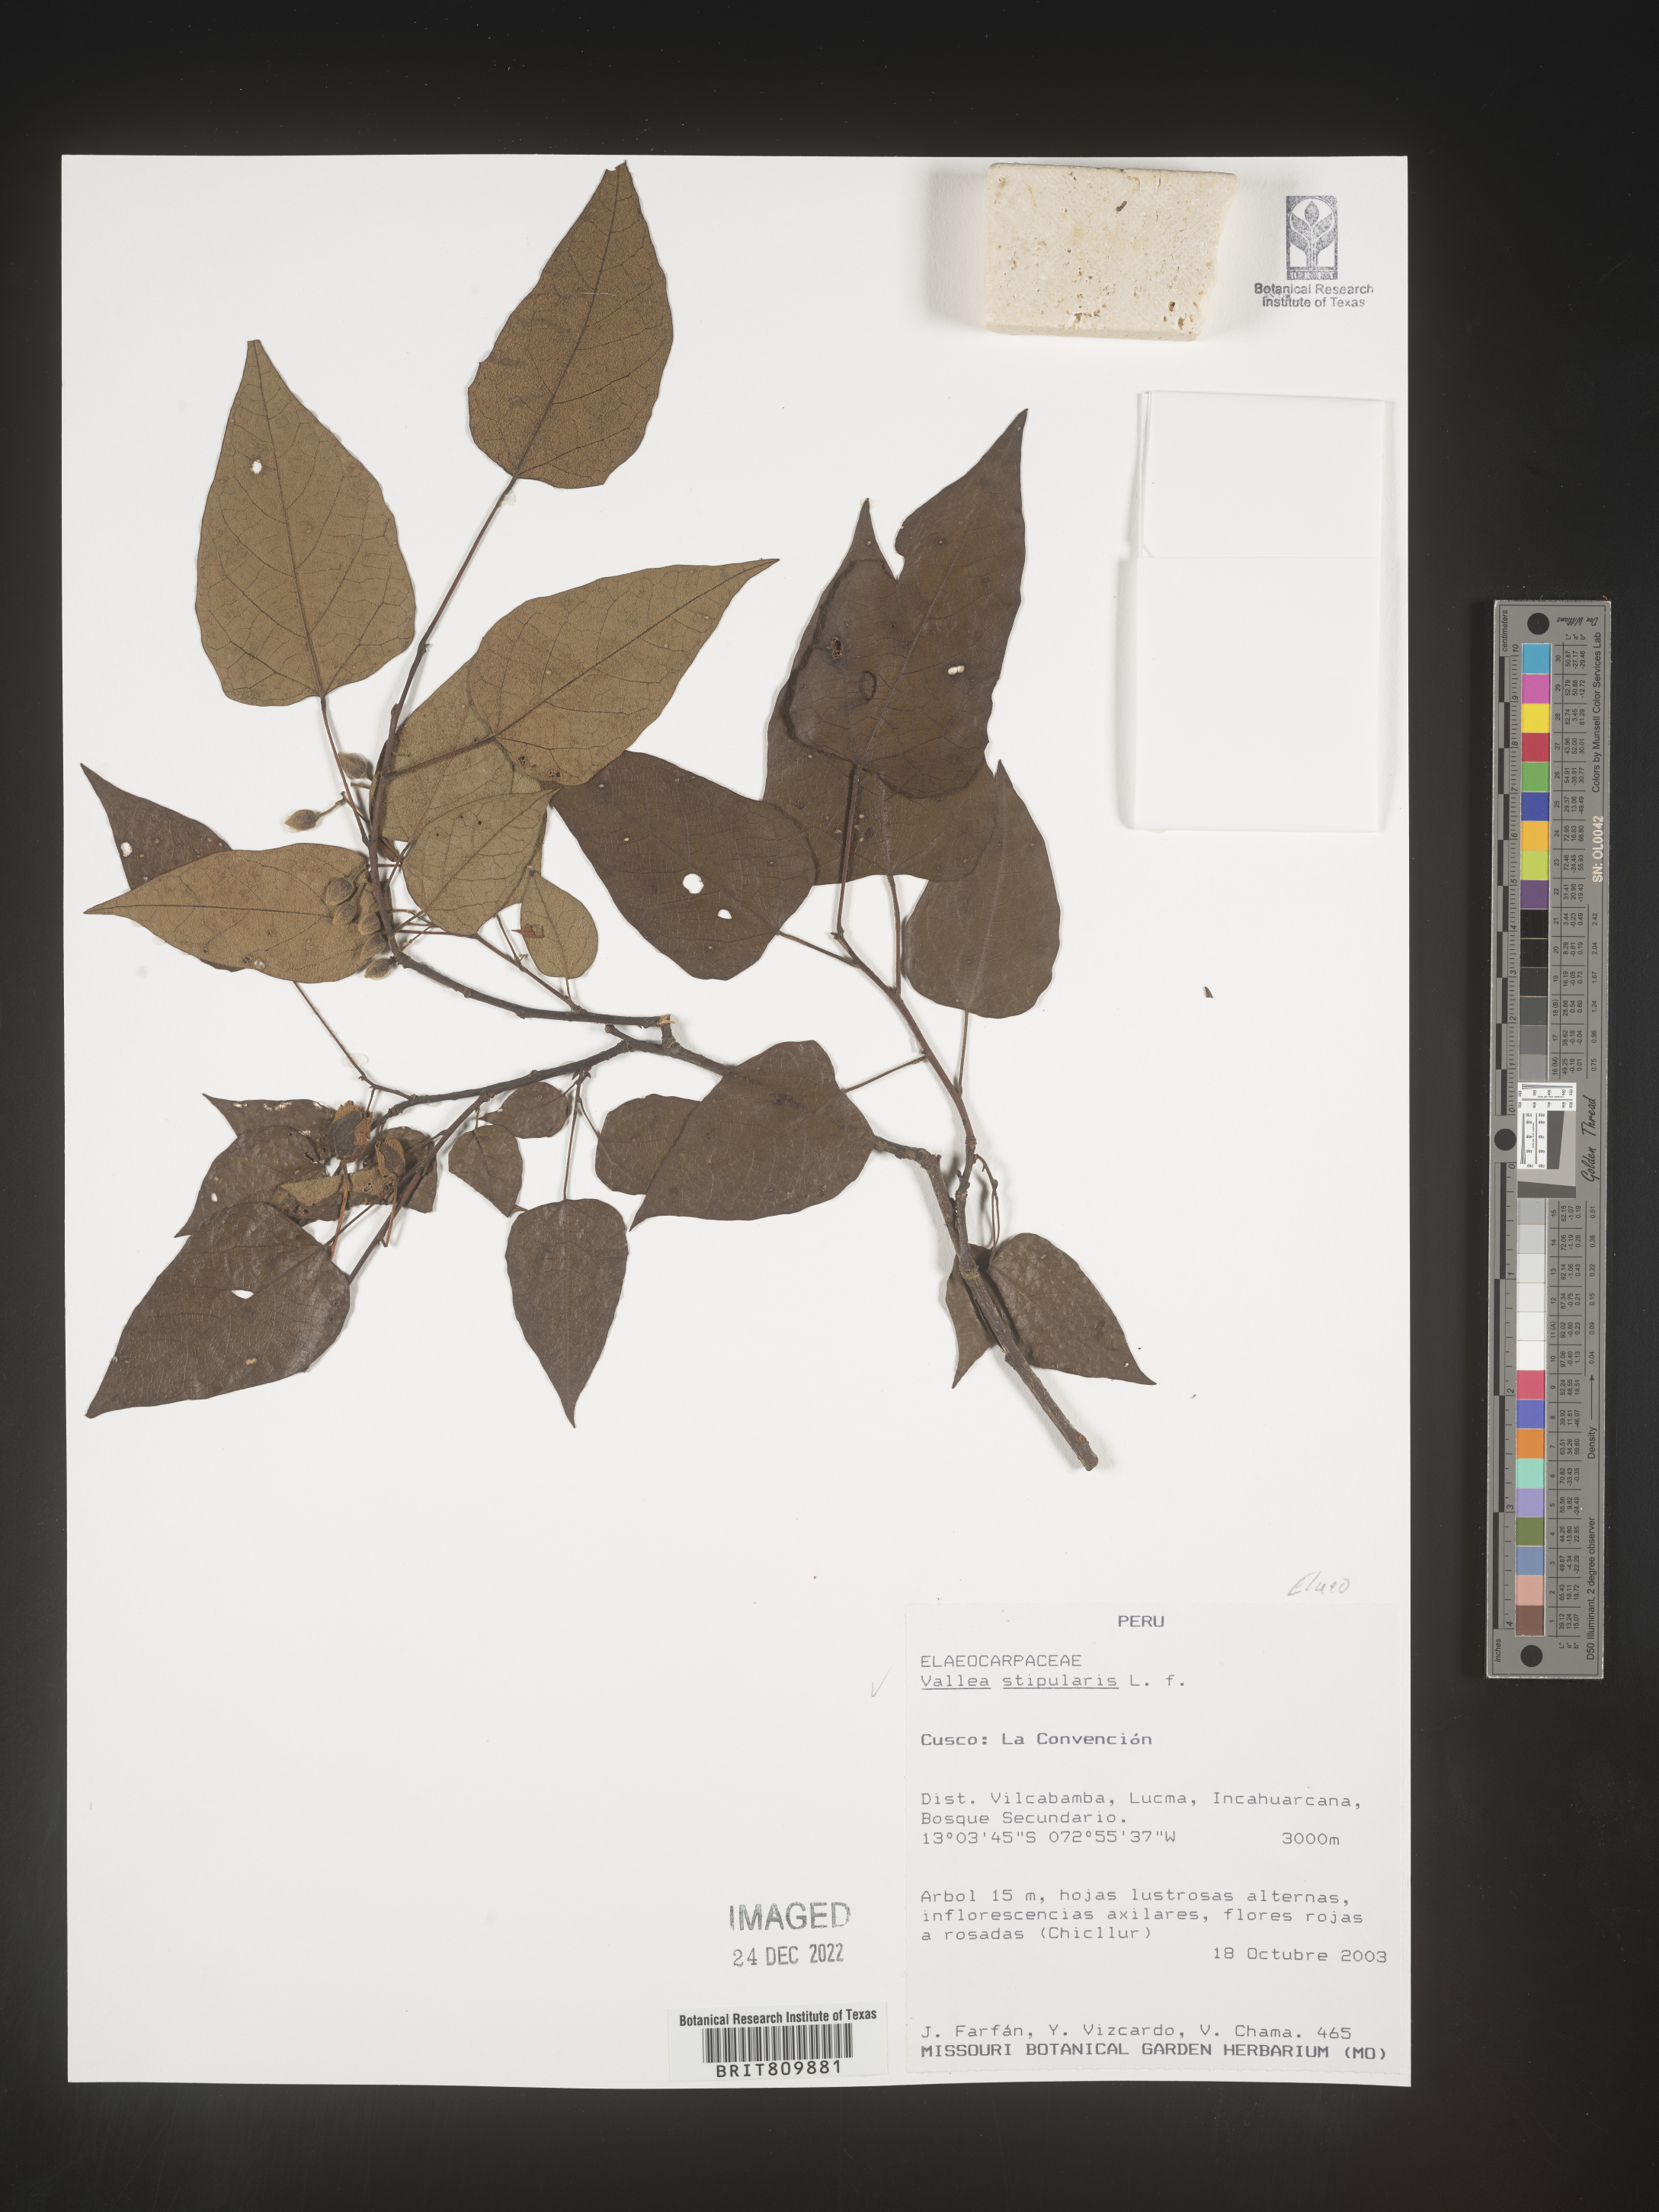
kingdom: Plantae
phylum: Tracheophyta
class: Magnoliopsida
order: Oxalidales
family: Elaeocarpaceae
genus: Vallea
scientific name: Vallea
